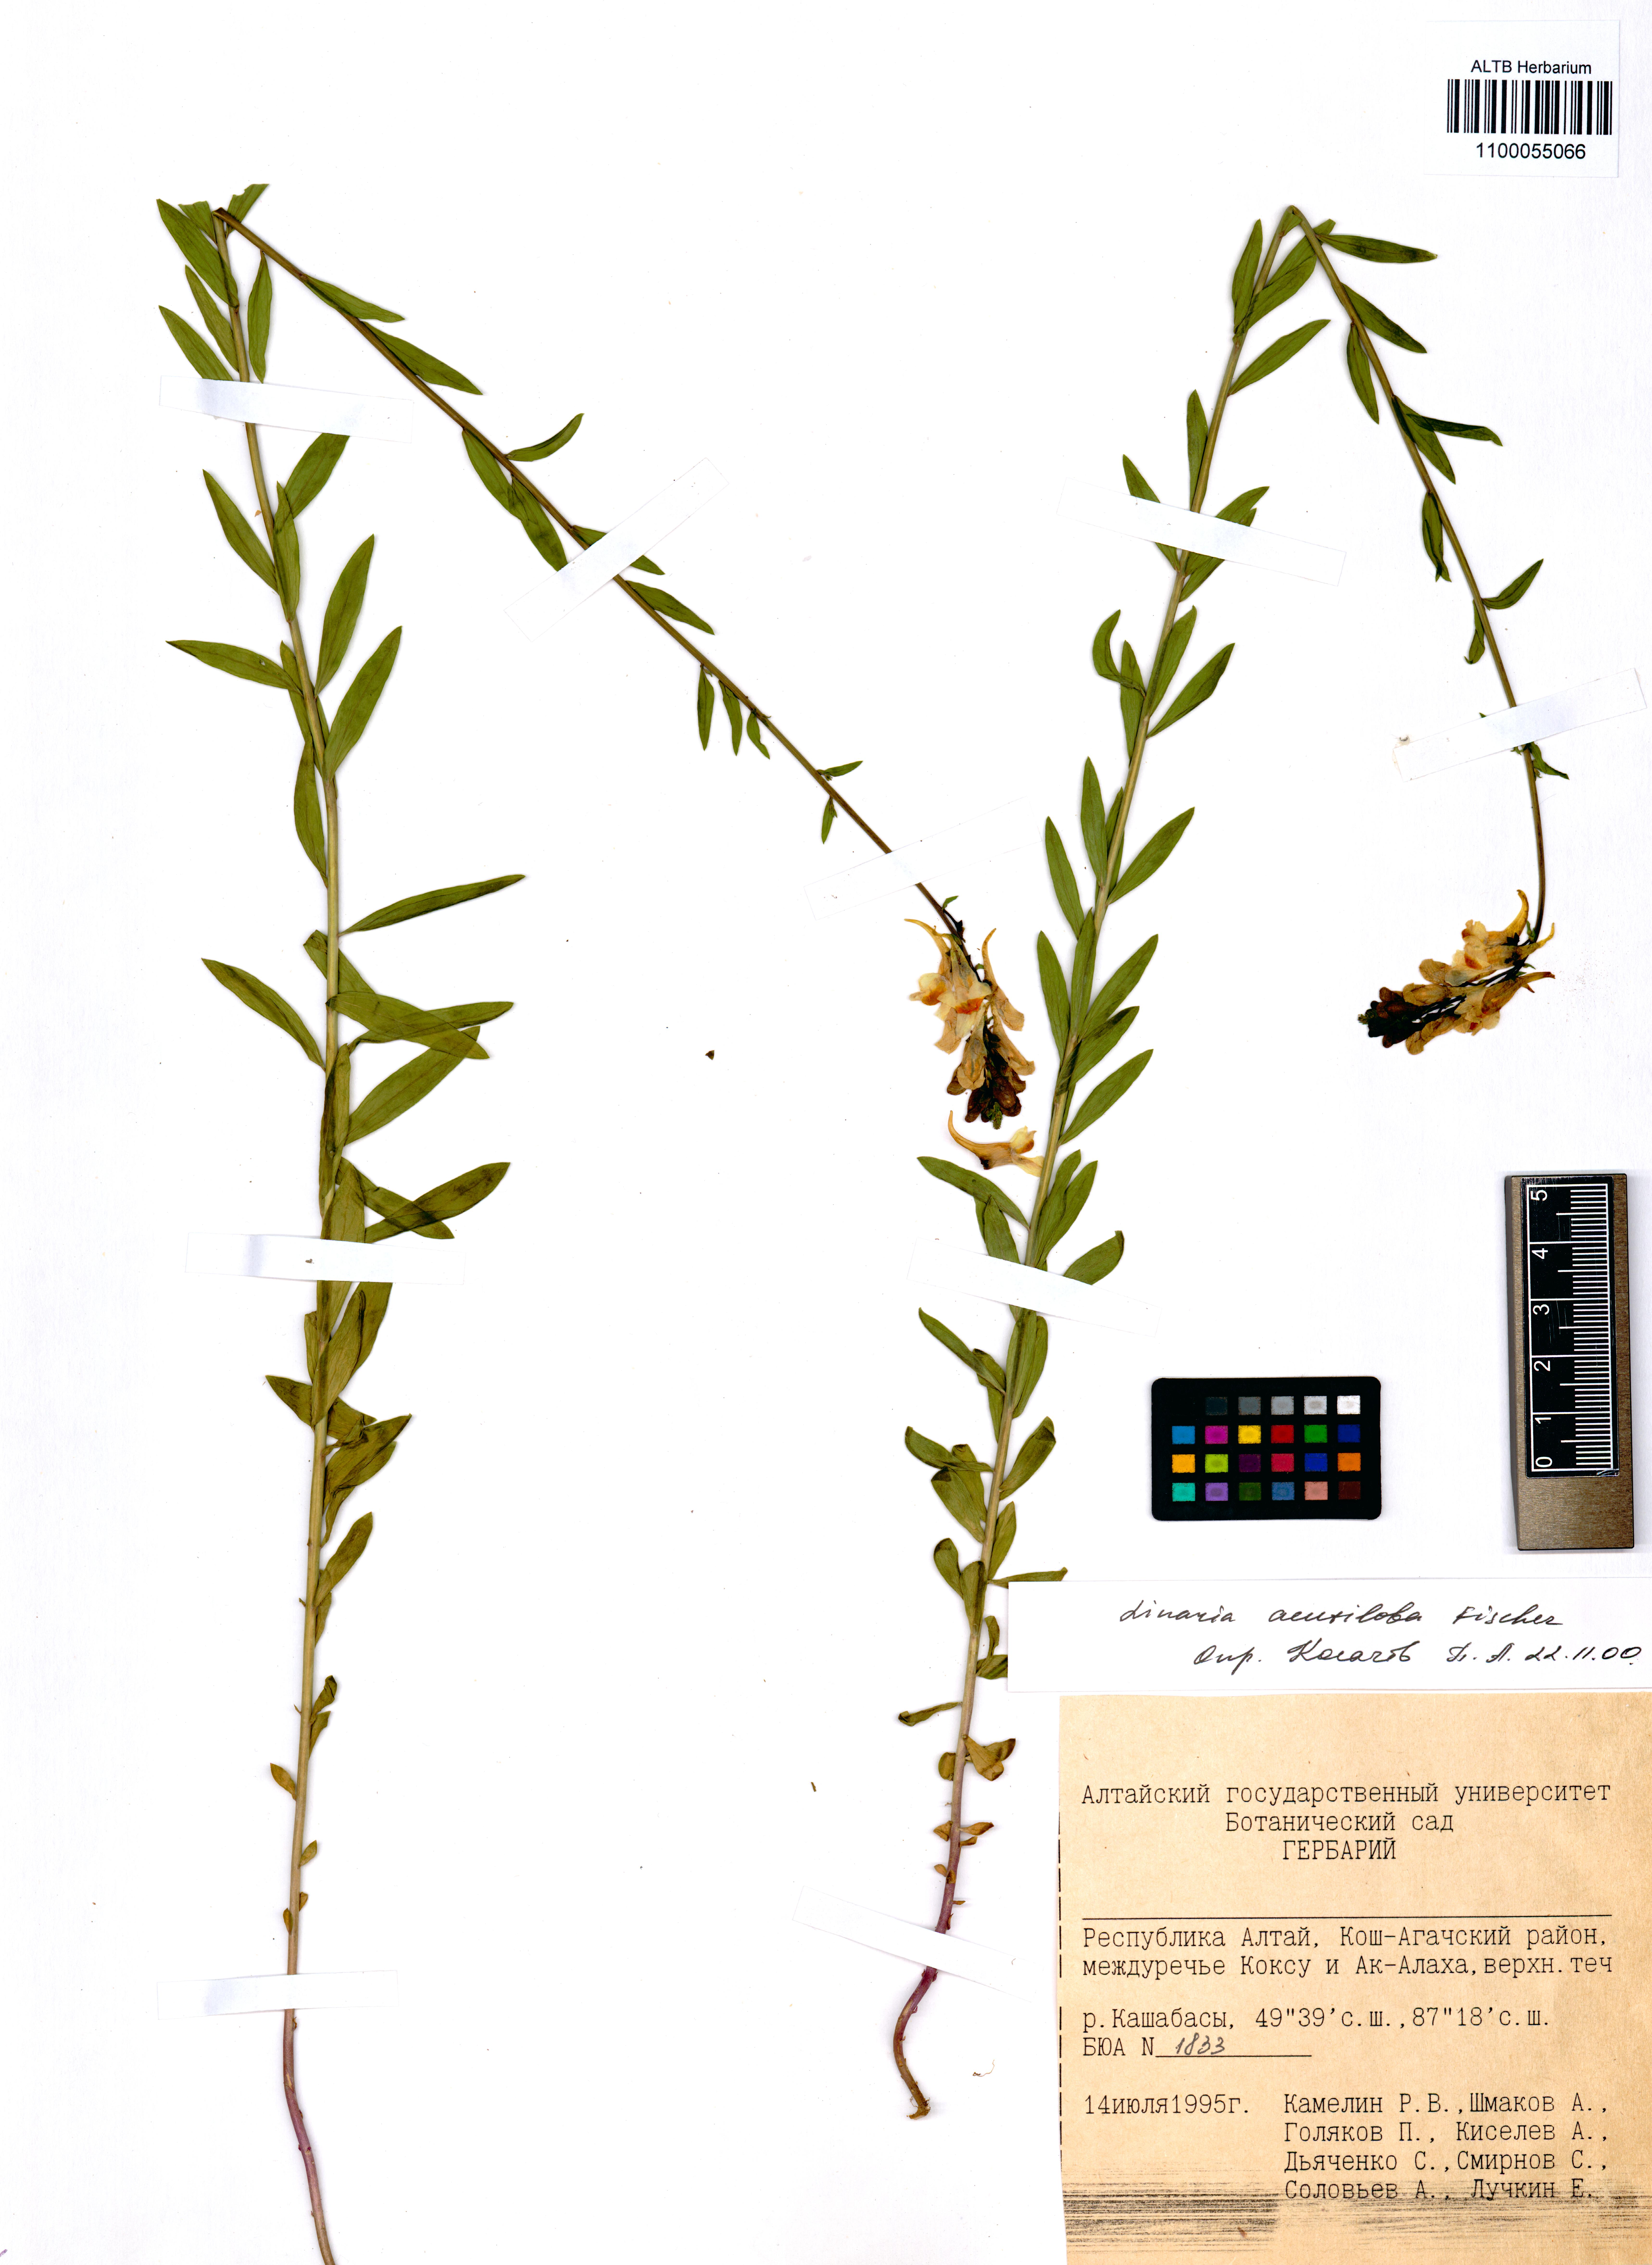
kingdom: Plantae
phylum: Tracheophyta
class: Magnoliopsida
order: Lamiales
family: Plantaginaceae
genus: Linaria
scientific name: Linaria acutiloba
